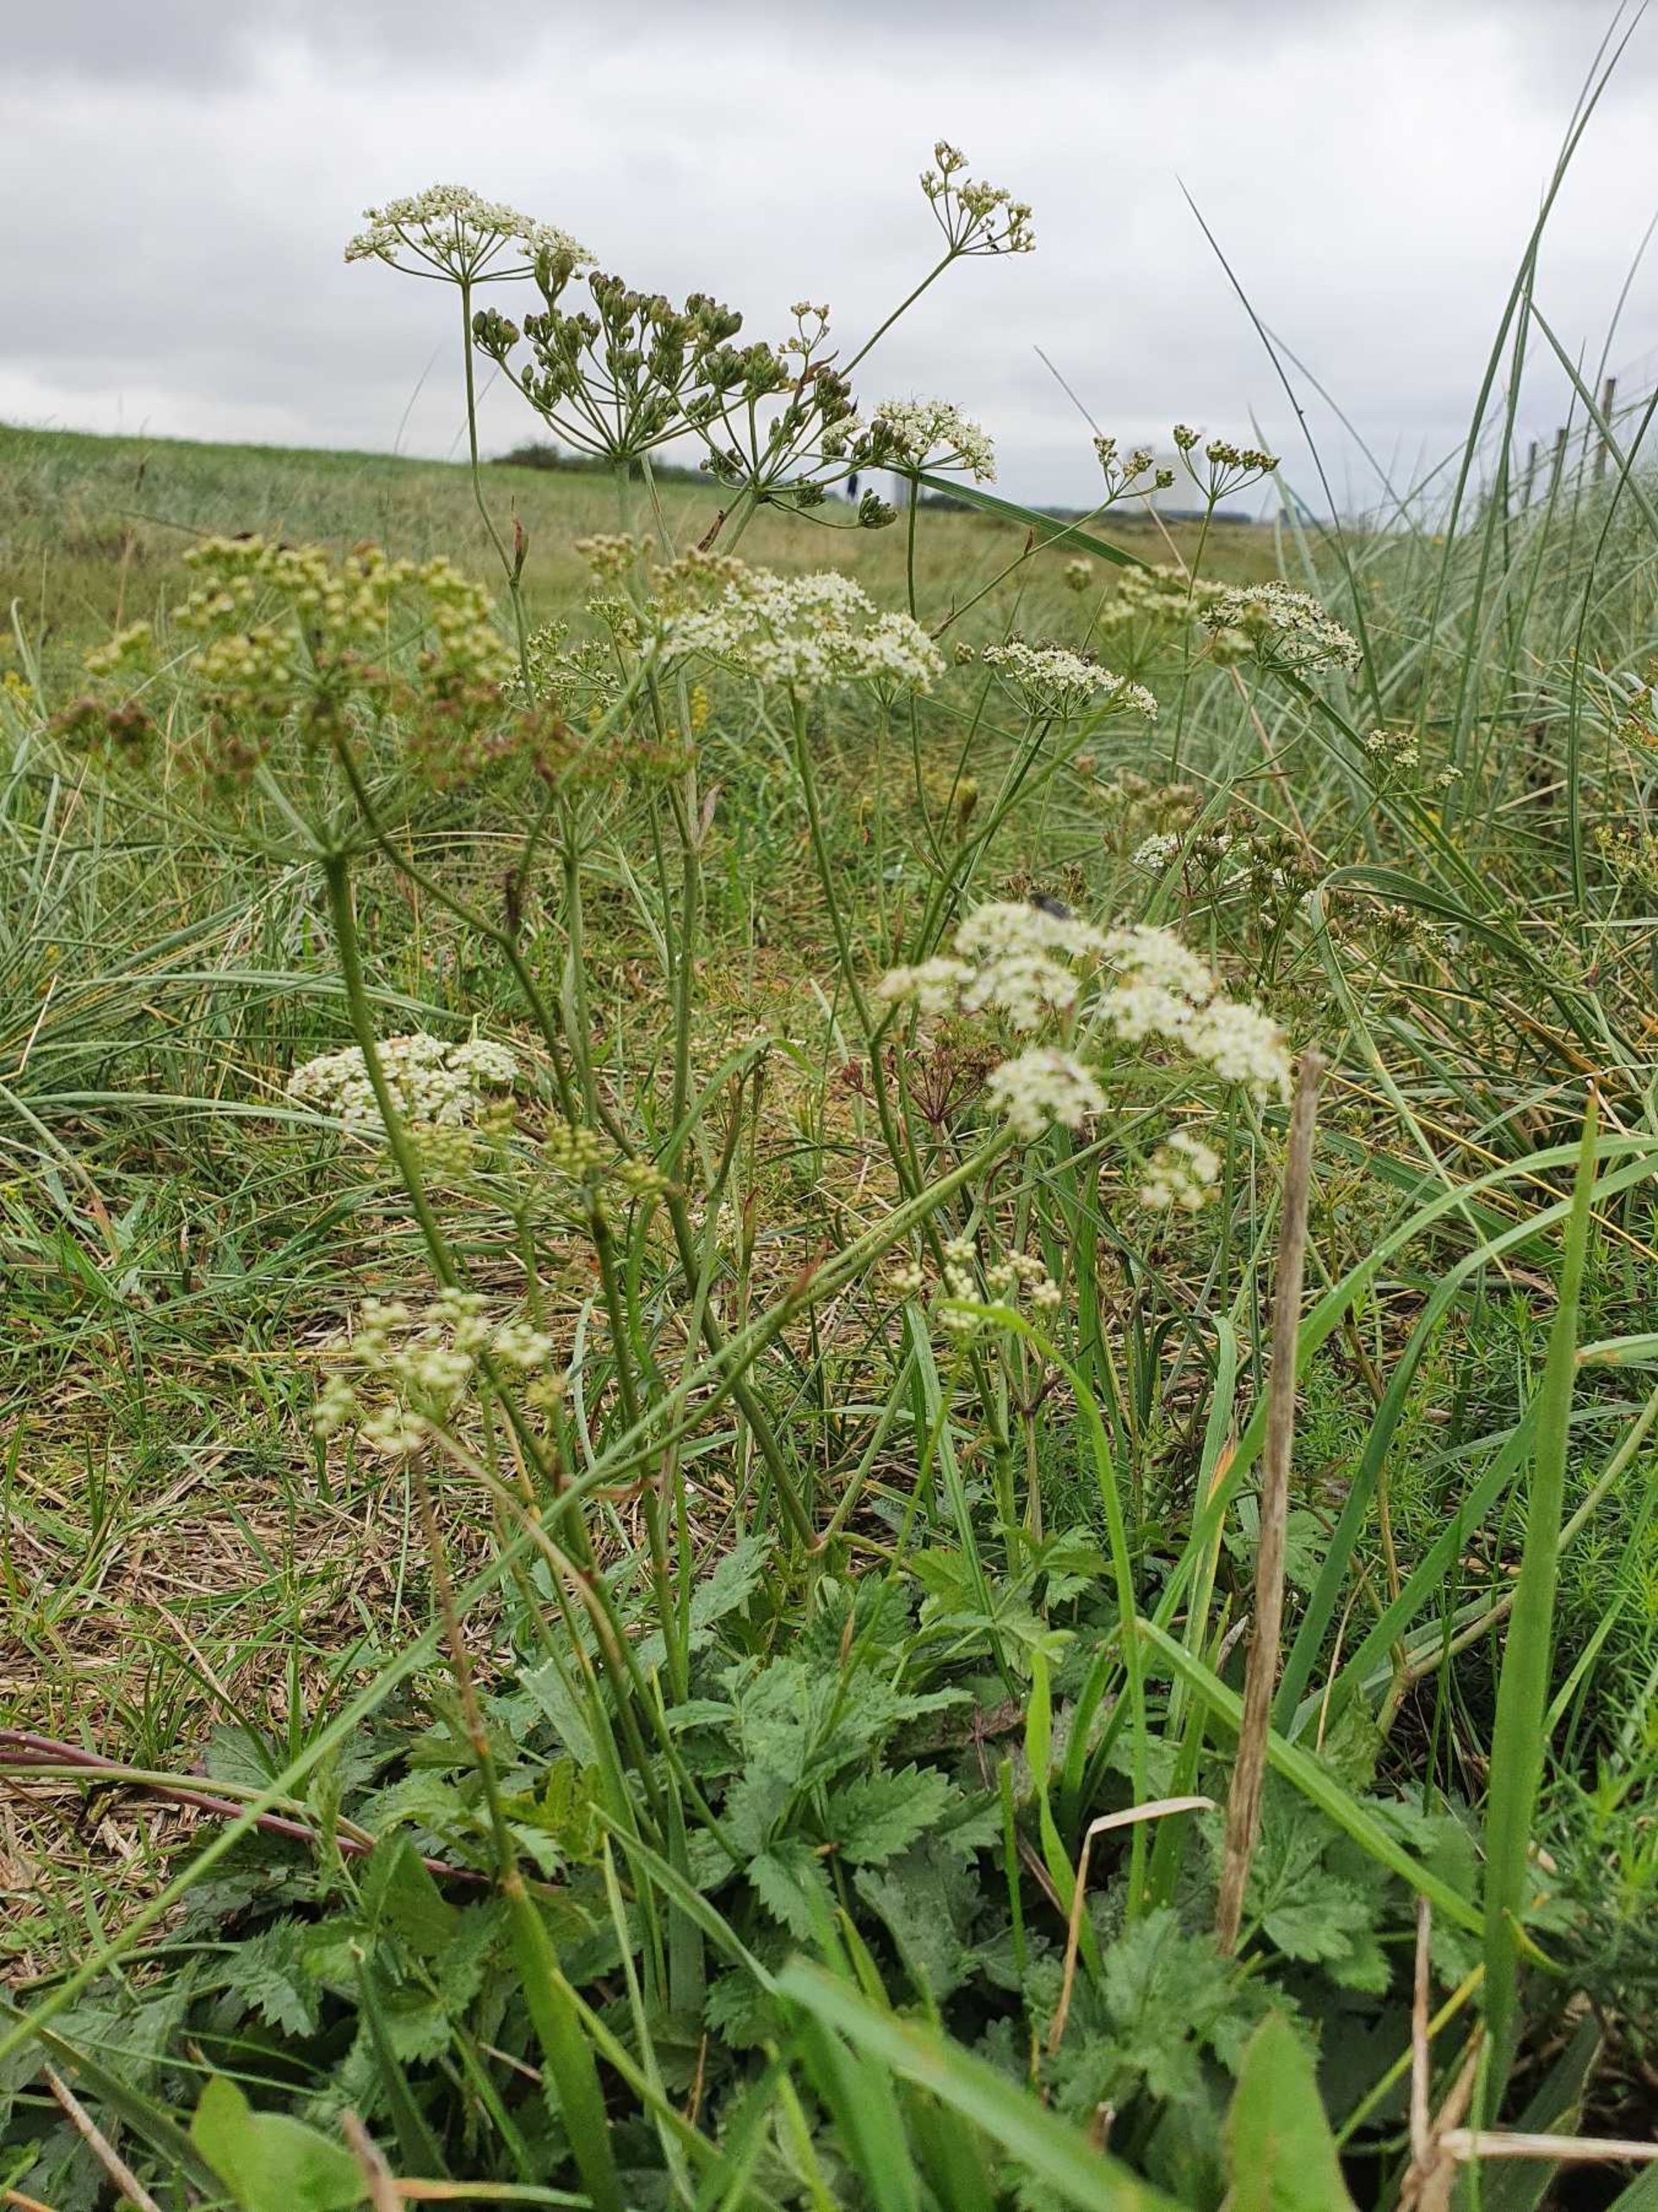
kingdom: Plantae
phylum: Tracheophyta
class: Magnoliopsida
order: Apiales
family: Apiaceae
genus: Pimpinella
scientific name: Pimpinella saxifraga
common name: Almindelig pimpinelle
